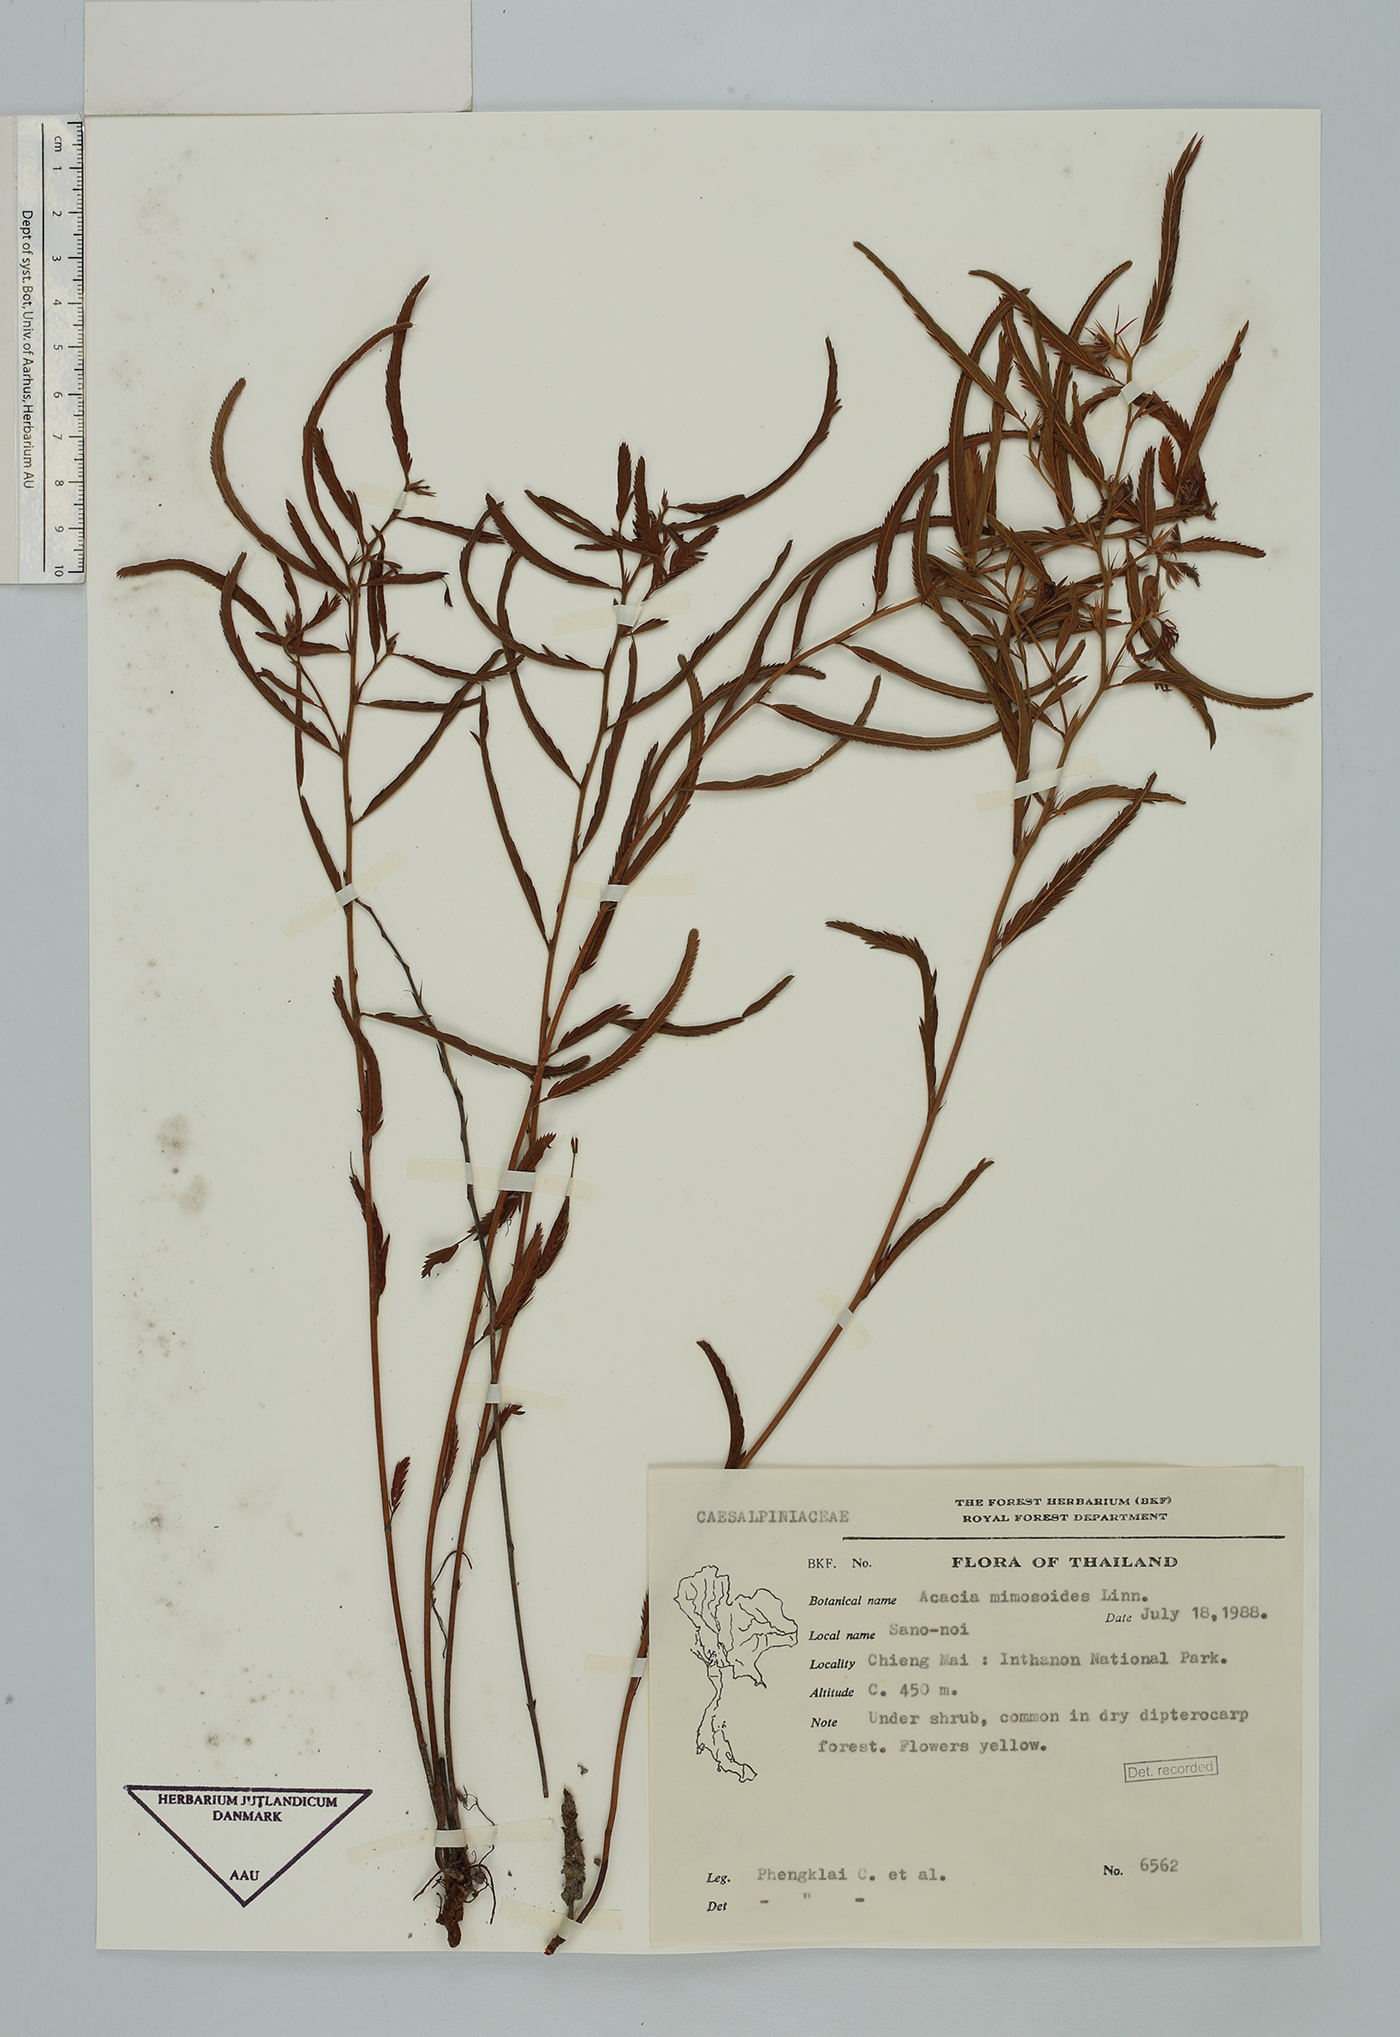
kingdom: Plantae
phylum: Tracheophyta
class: Magnoliopsida
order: Fabales
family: Fabaceae
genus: Chamaecrista
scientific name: Chamaecrista mimosoides
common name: Fish-bone cassia
